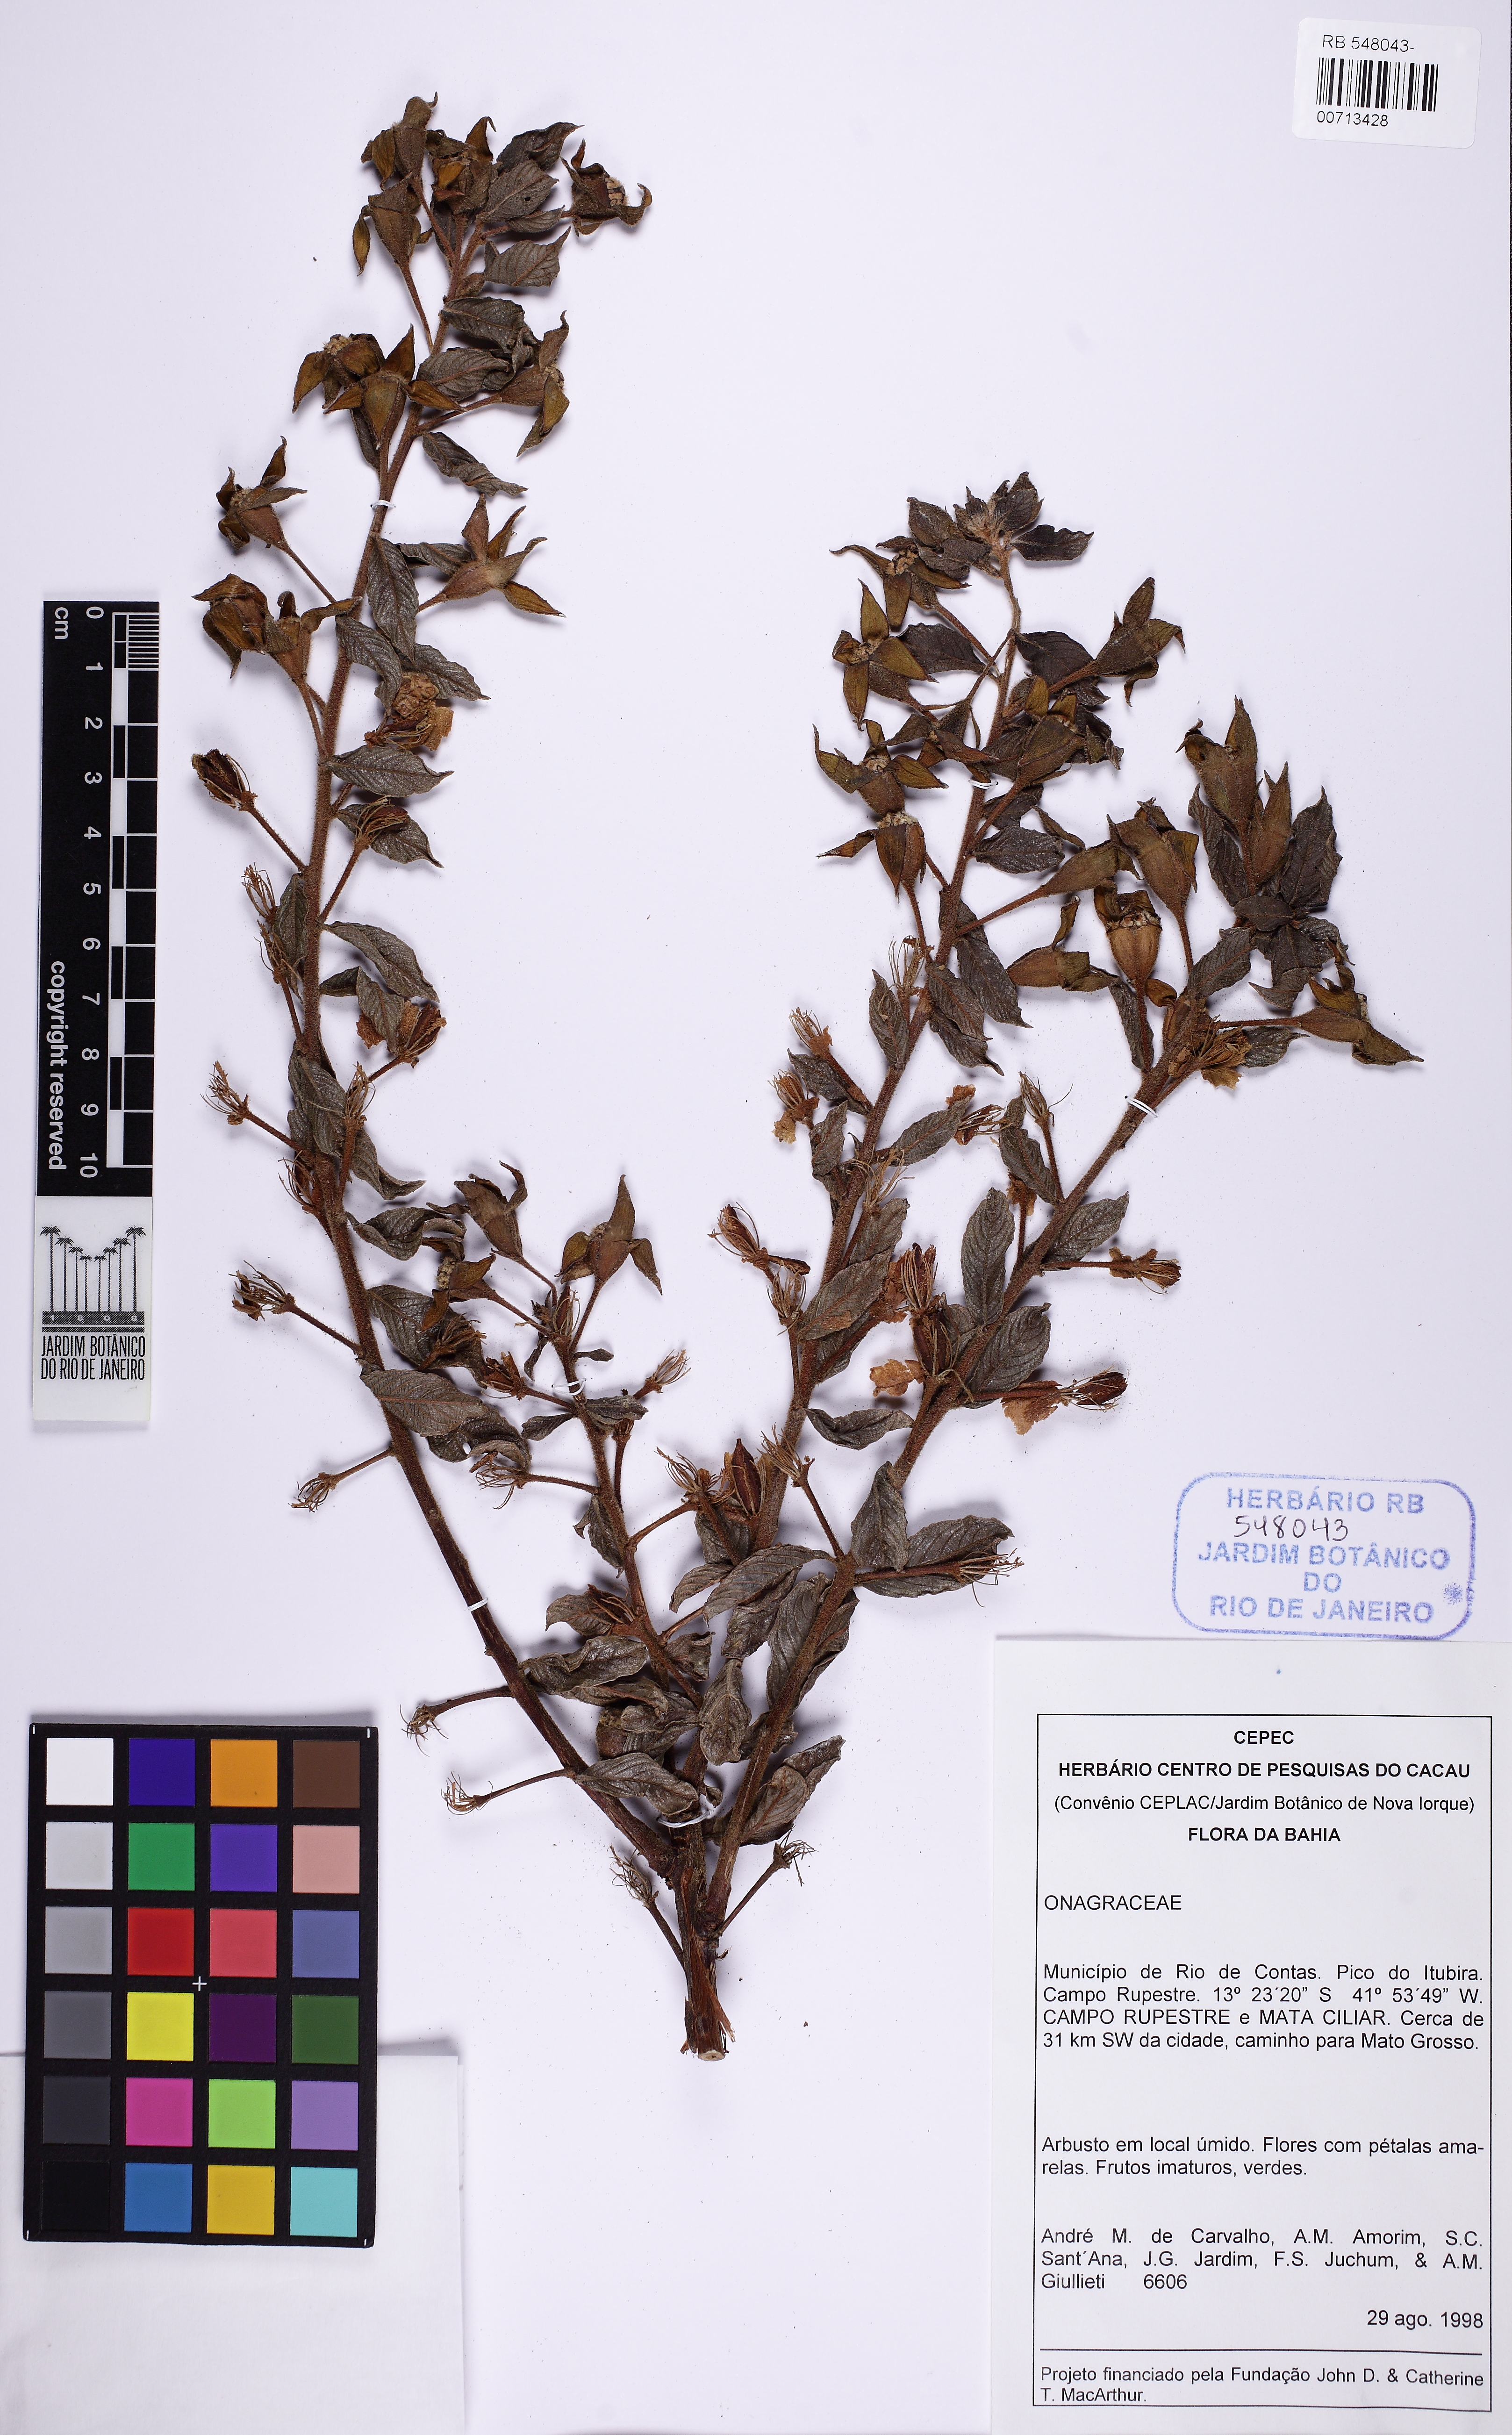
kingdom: Plantae
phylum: Tracheophyta
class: Magnoliopsida
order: Myrtales
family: Onagraceae
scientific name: Onagraceae
